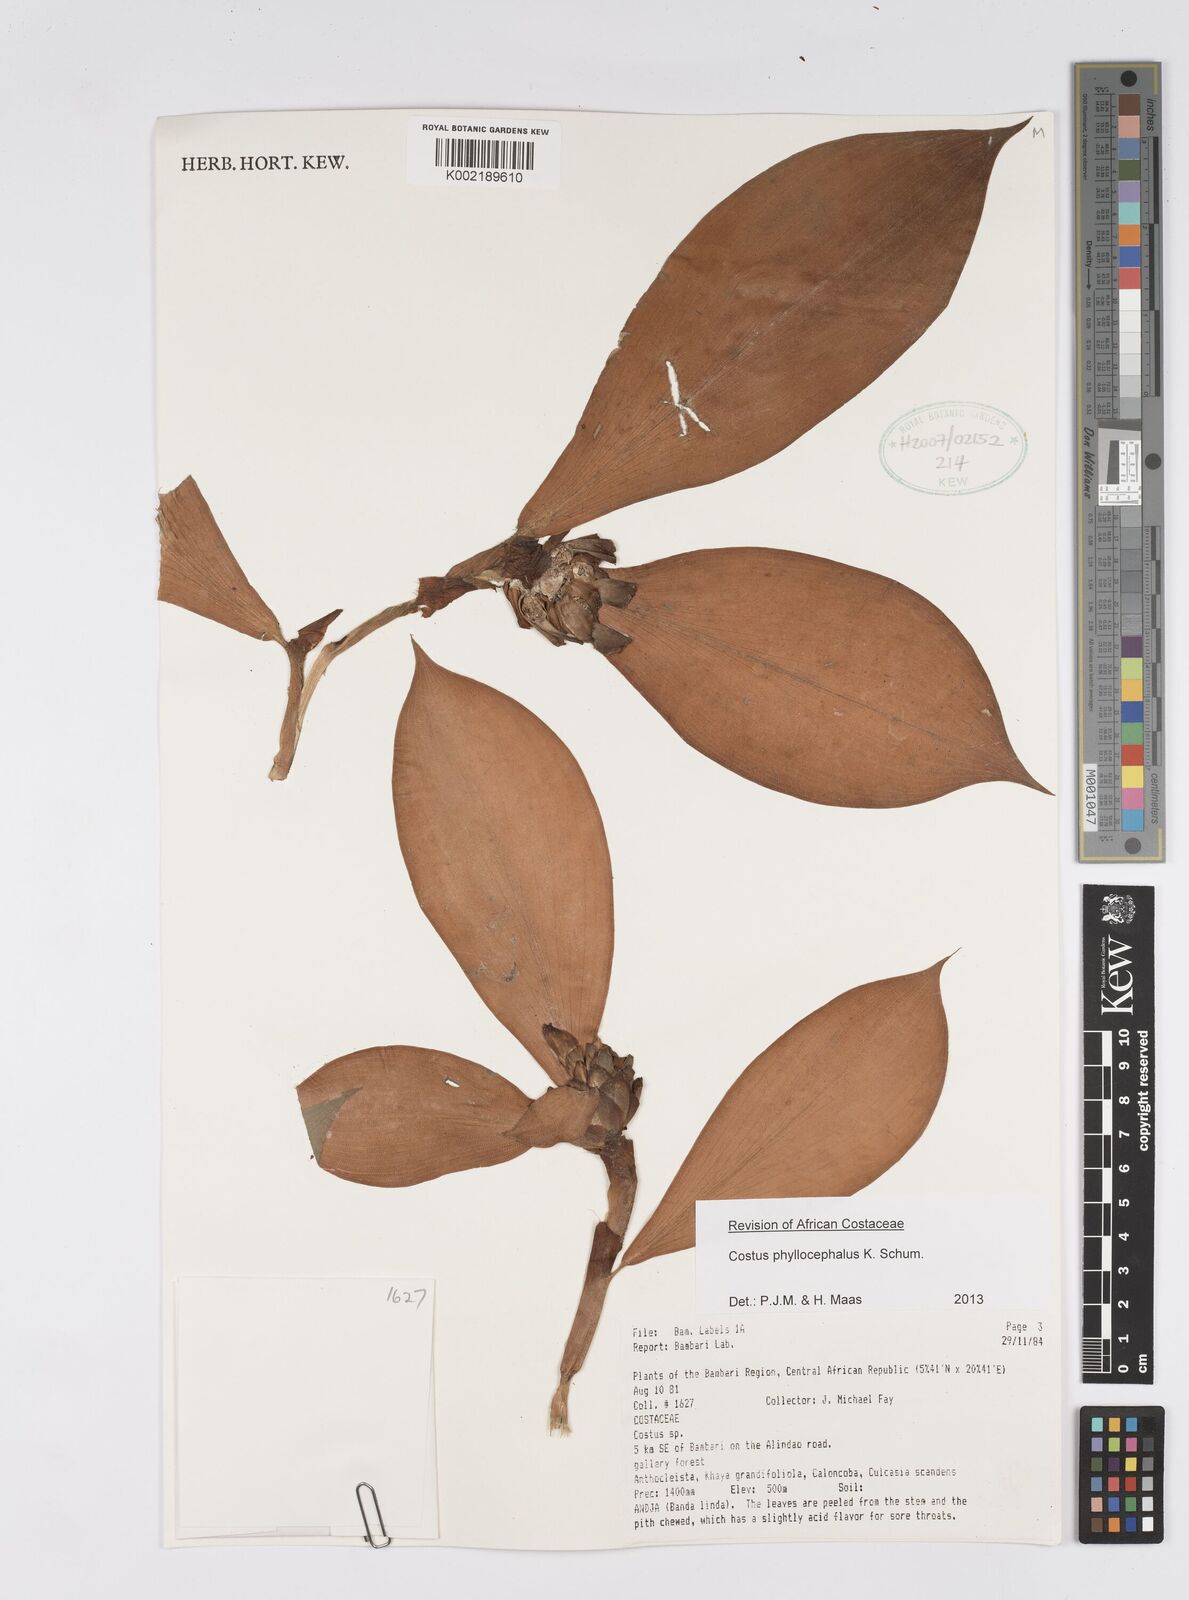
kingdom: Plantae
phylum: Tracheophyta
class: Liliopsida
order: Zingiberales
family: Costaceae
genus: Costus
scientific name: Costus phyllocephalus
